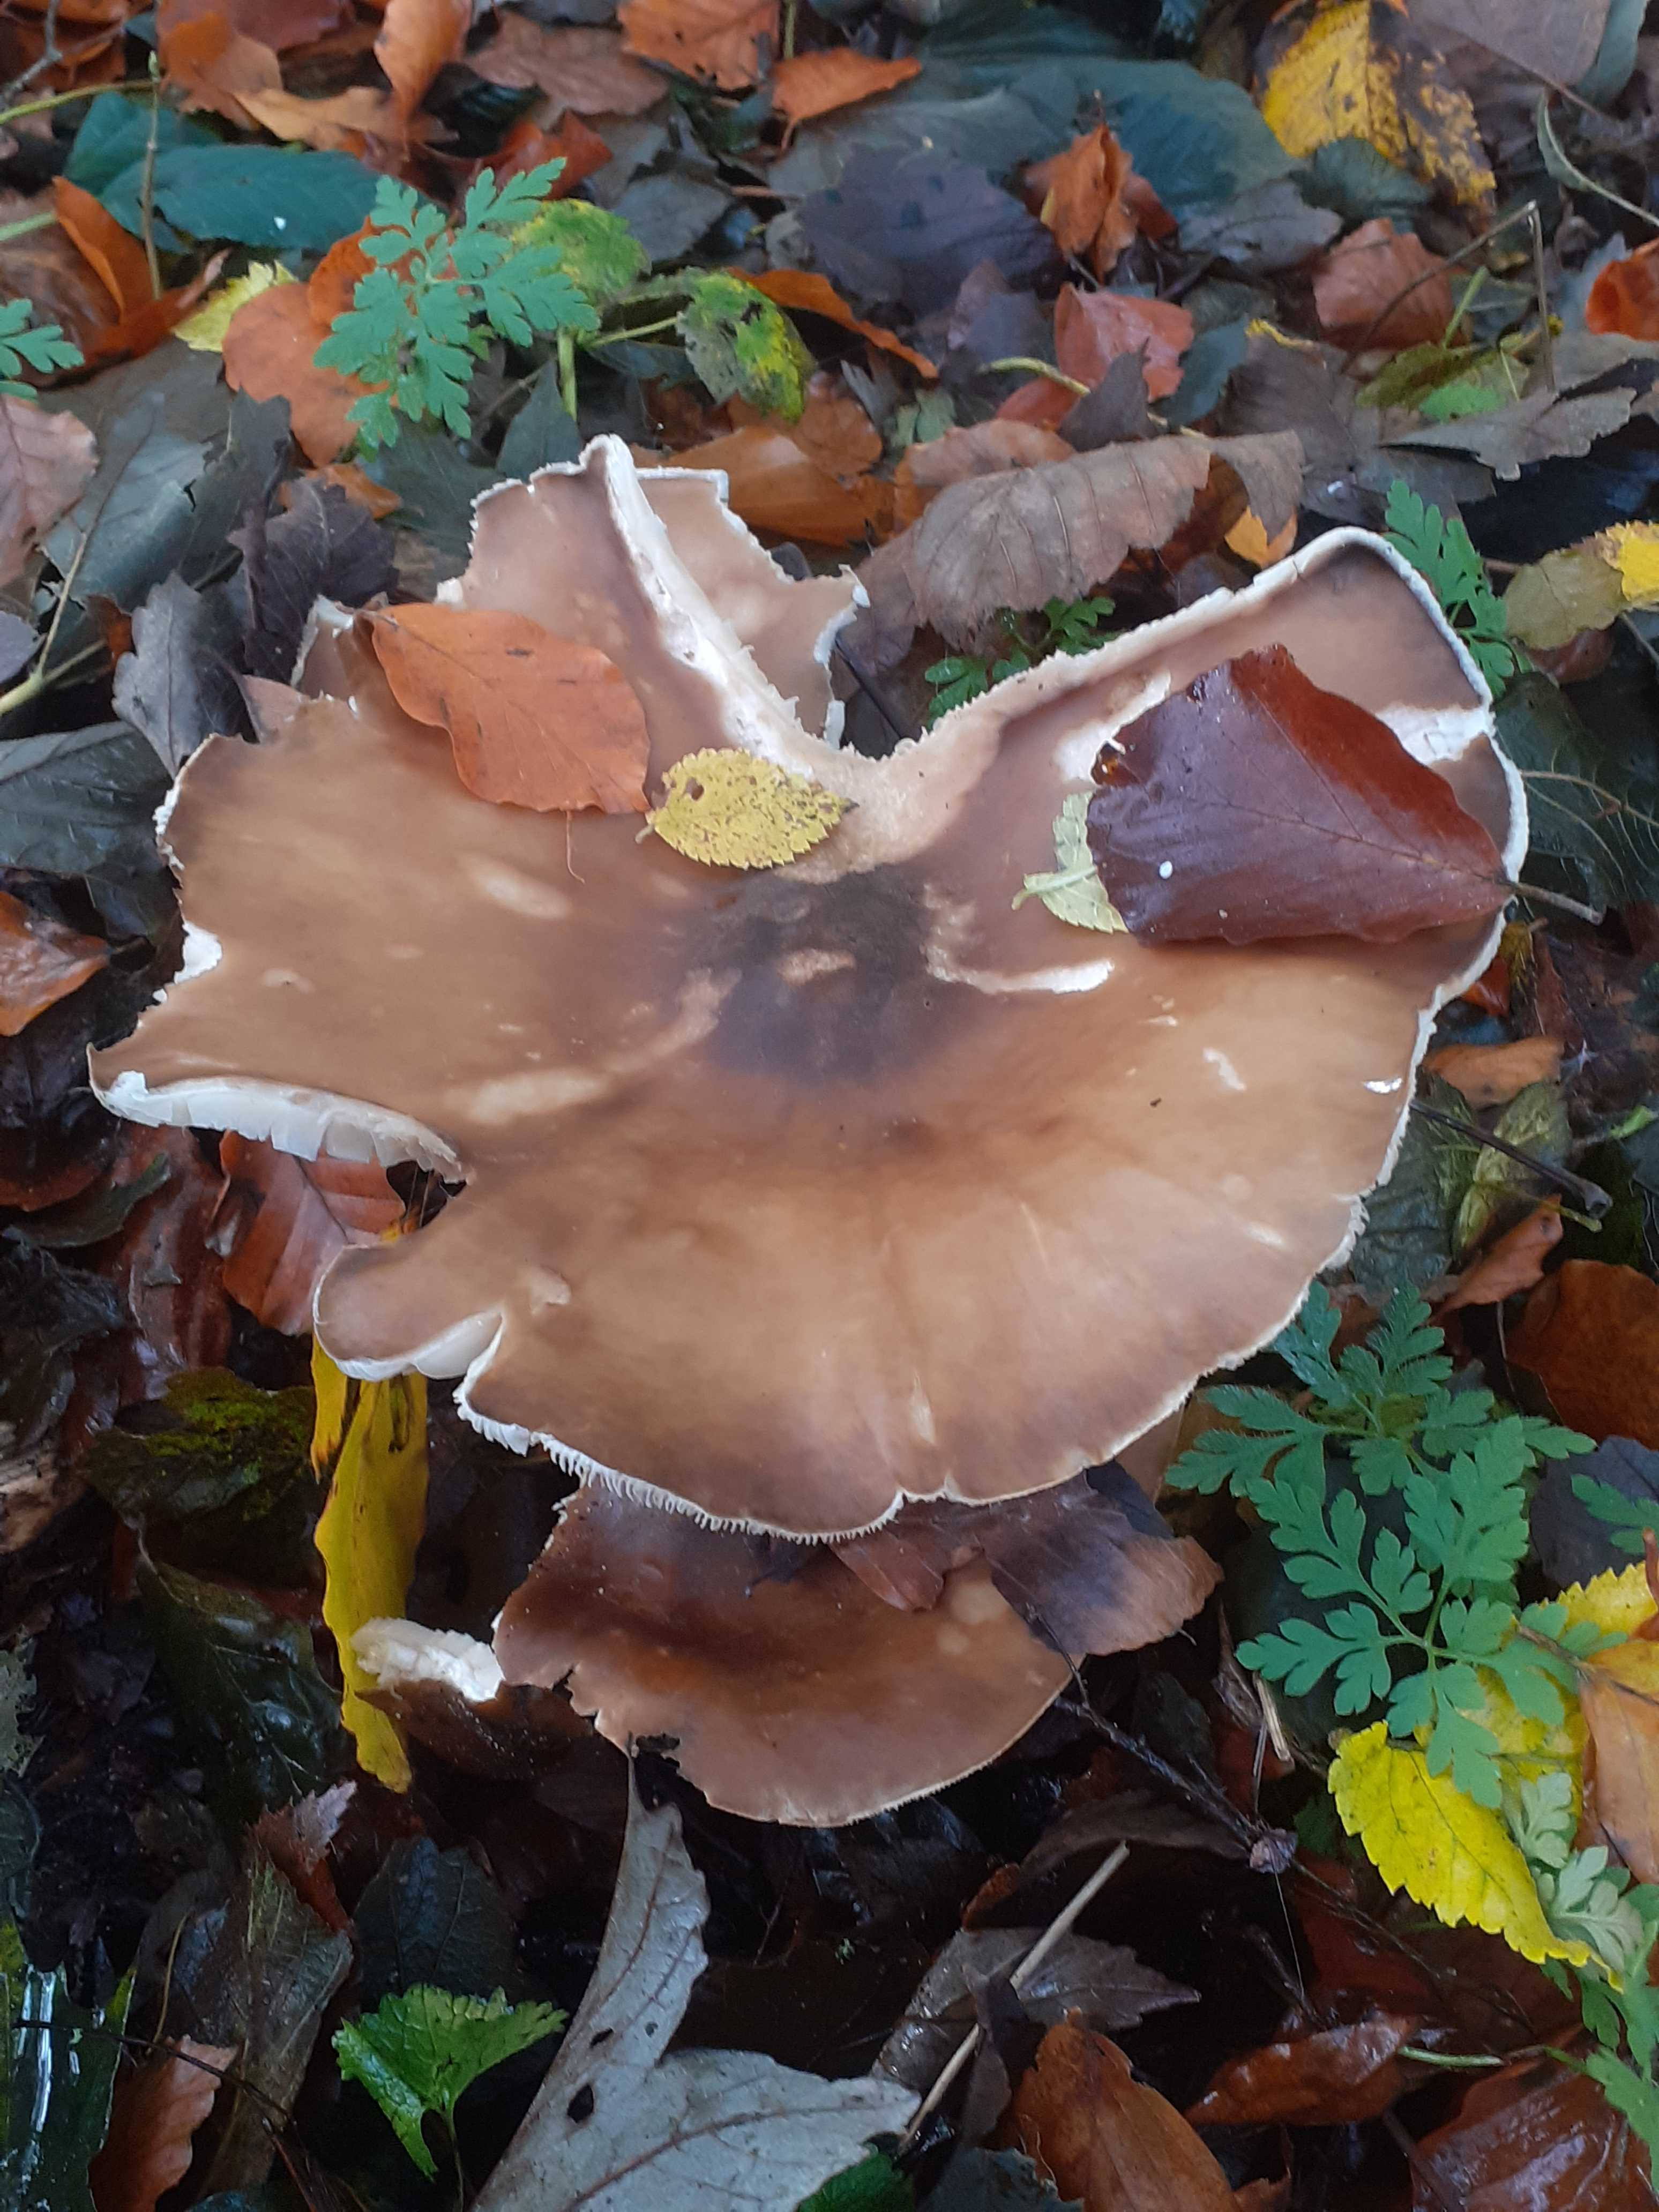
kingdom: Fungi
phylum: Basidiomycota
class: Agaricomycetes
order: Agaricales
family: Tricholomataceae
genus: Melanoleuca
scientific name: Melanoleuca grammopodia
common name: stribestokket munkehat
